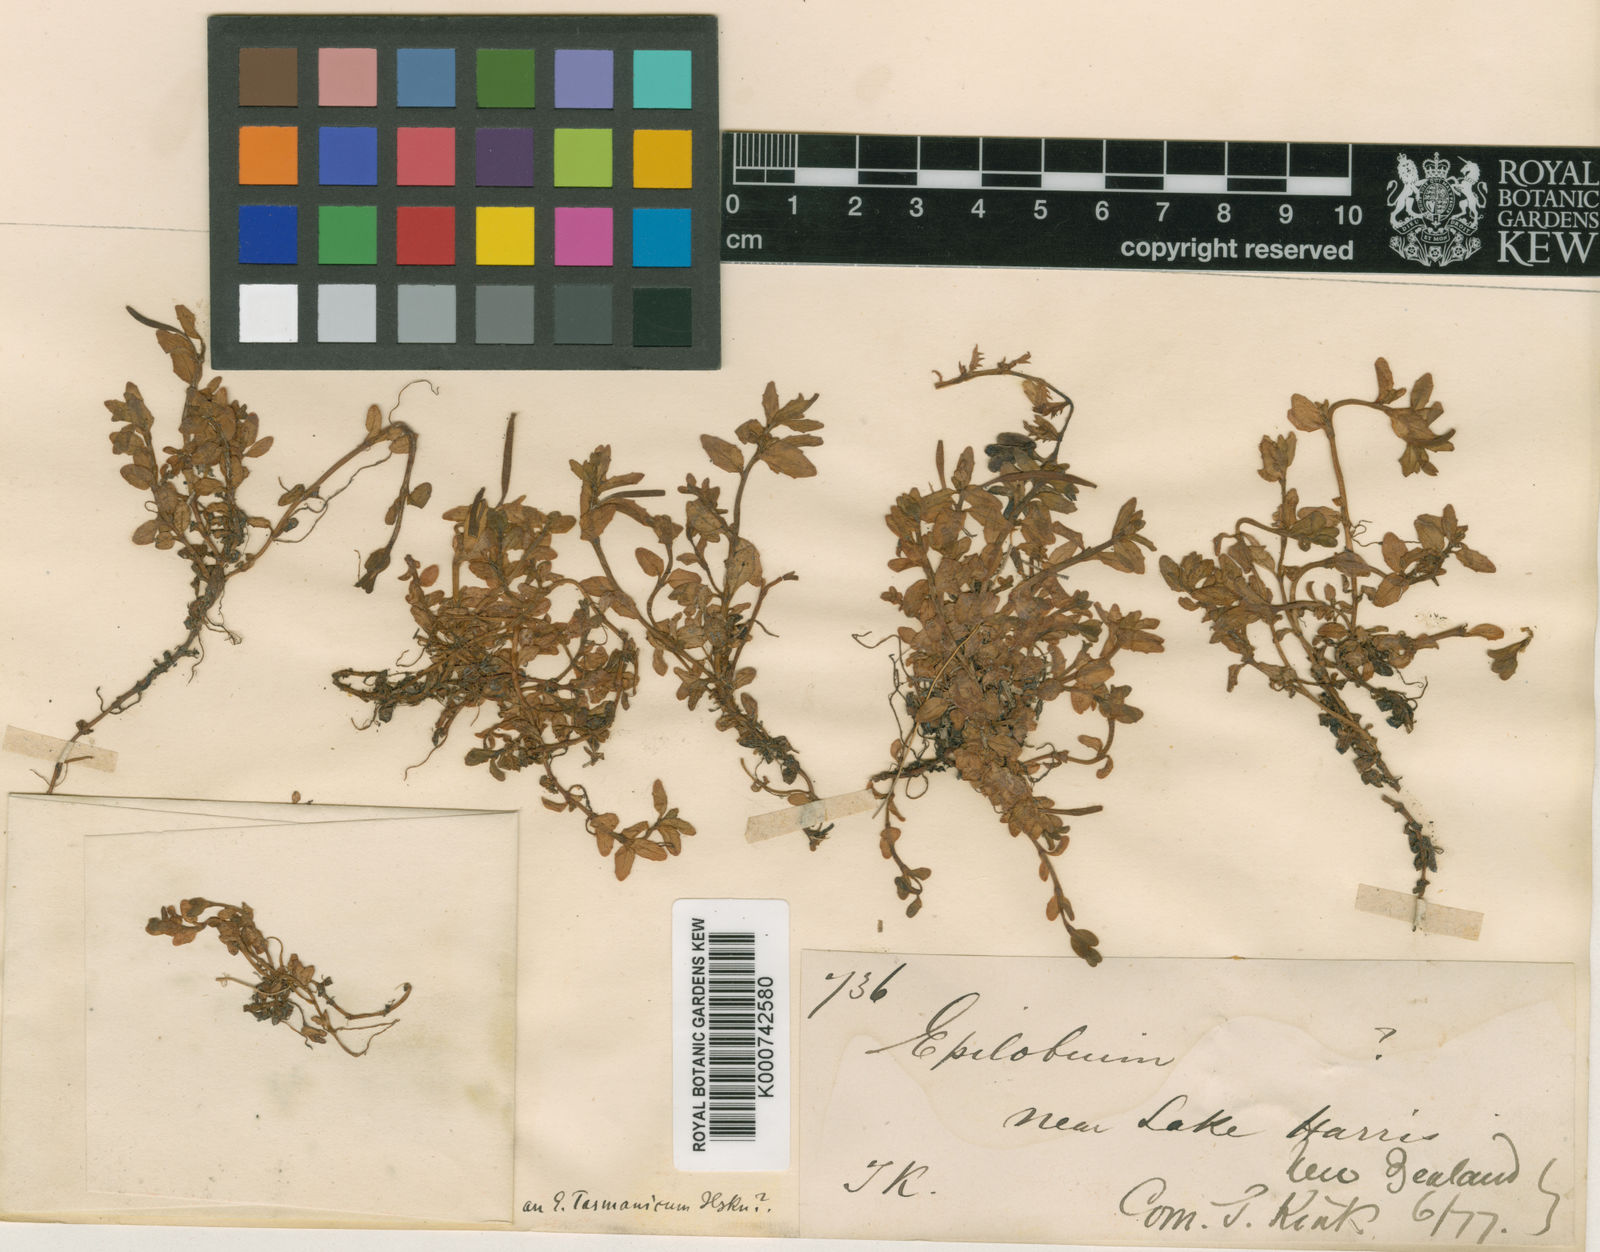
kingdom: Plantae
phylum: Tracheophyta
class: Magnoliopsida
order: Myrtales
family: Onagraceae
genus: Epilobium
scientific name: Epilobium tasmanicum
